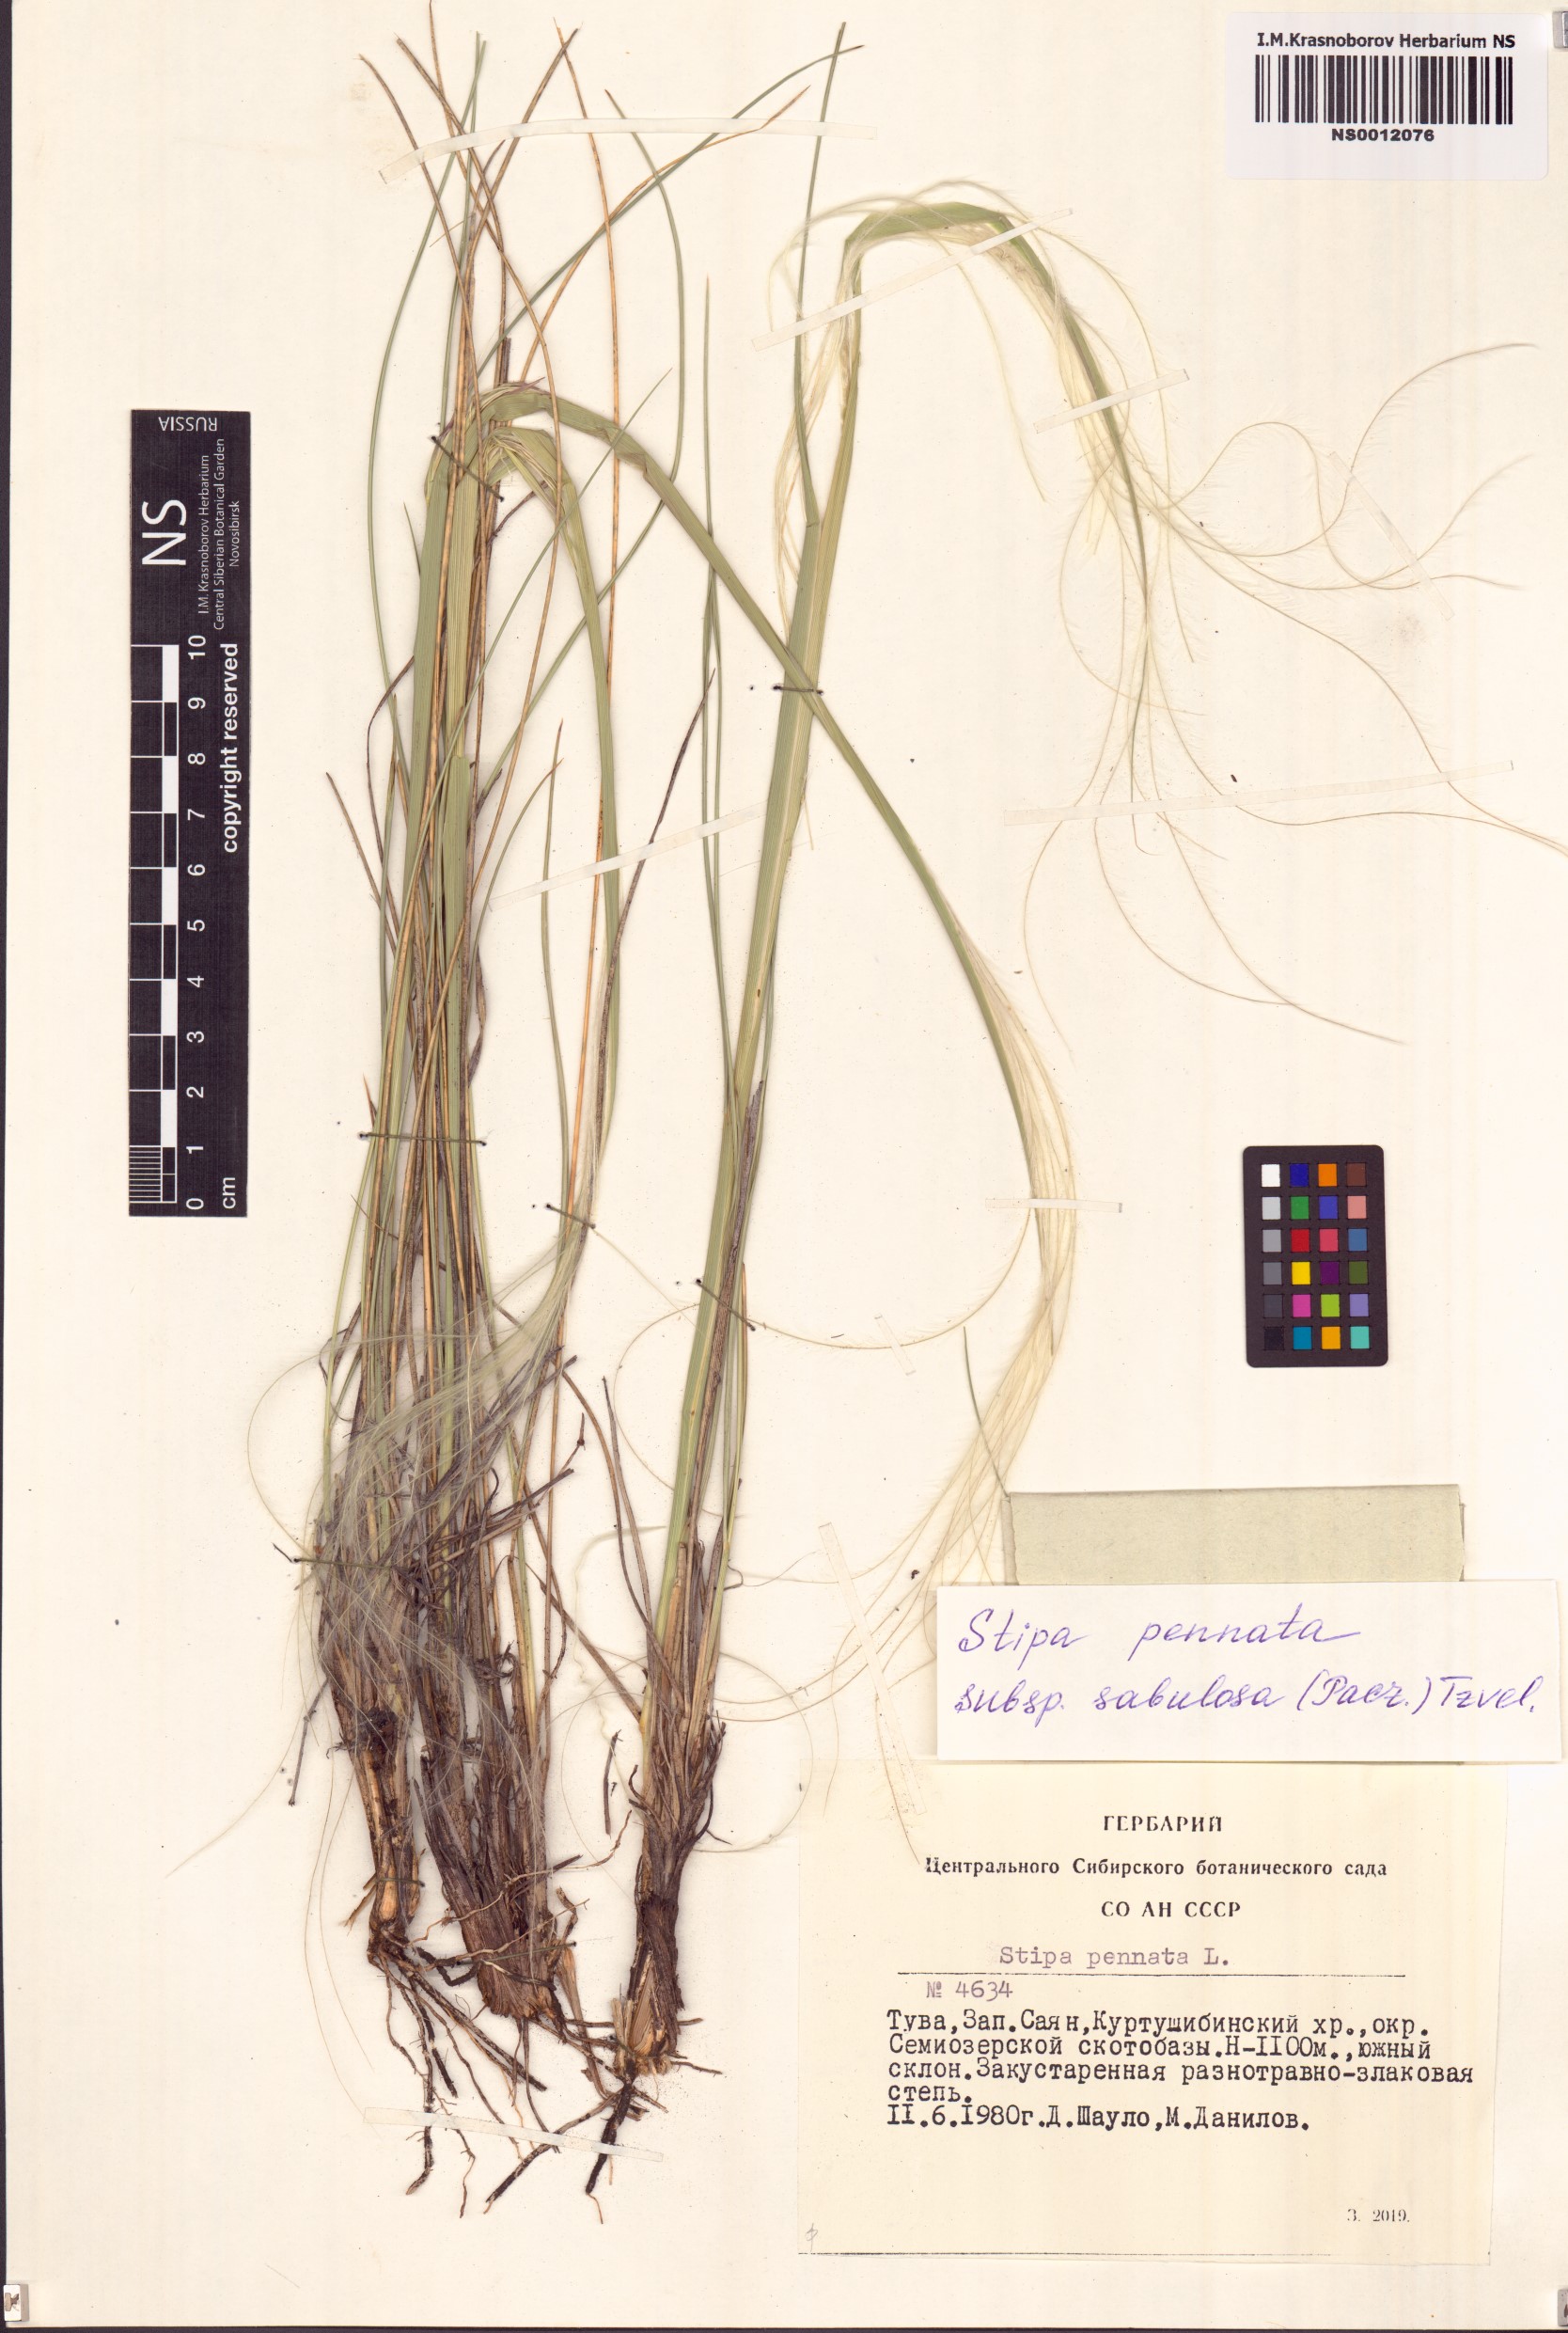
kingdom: Plantae
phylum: Tracheophyta
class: Liliopsida
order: Poales
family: Poaceae
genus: Stipa
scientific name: Stipa borysthenica
